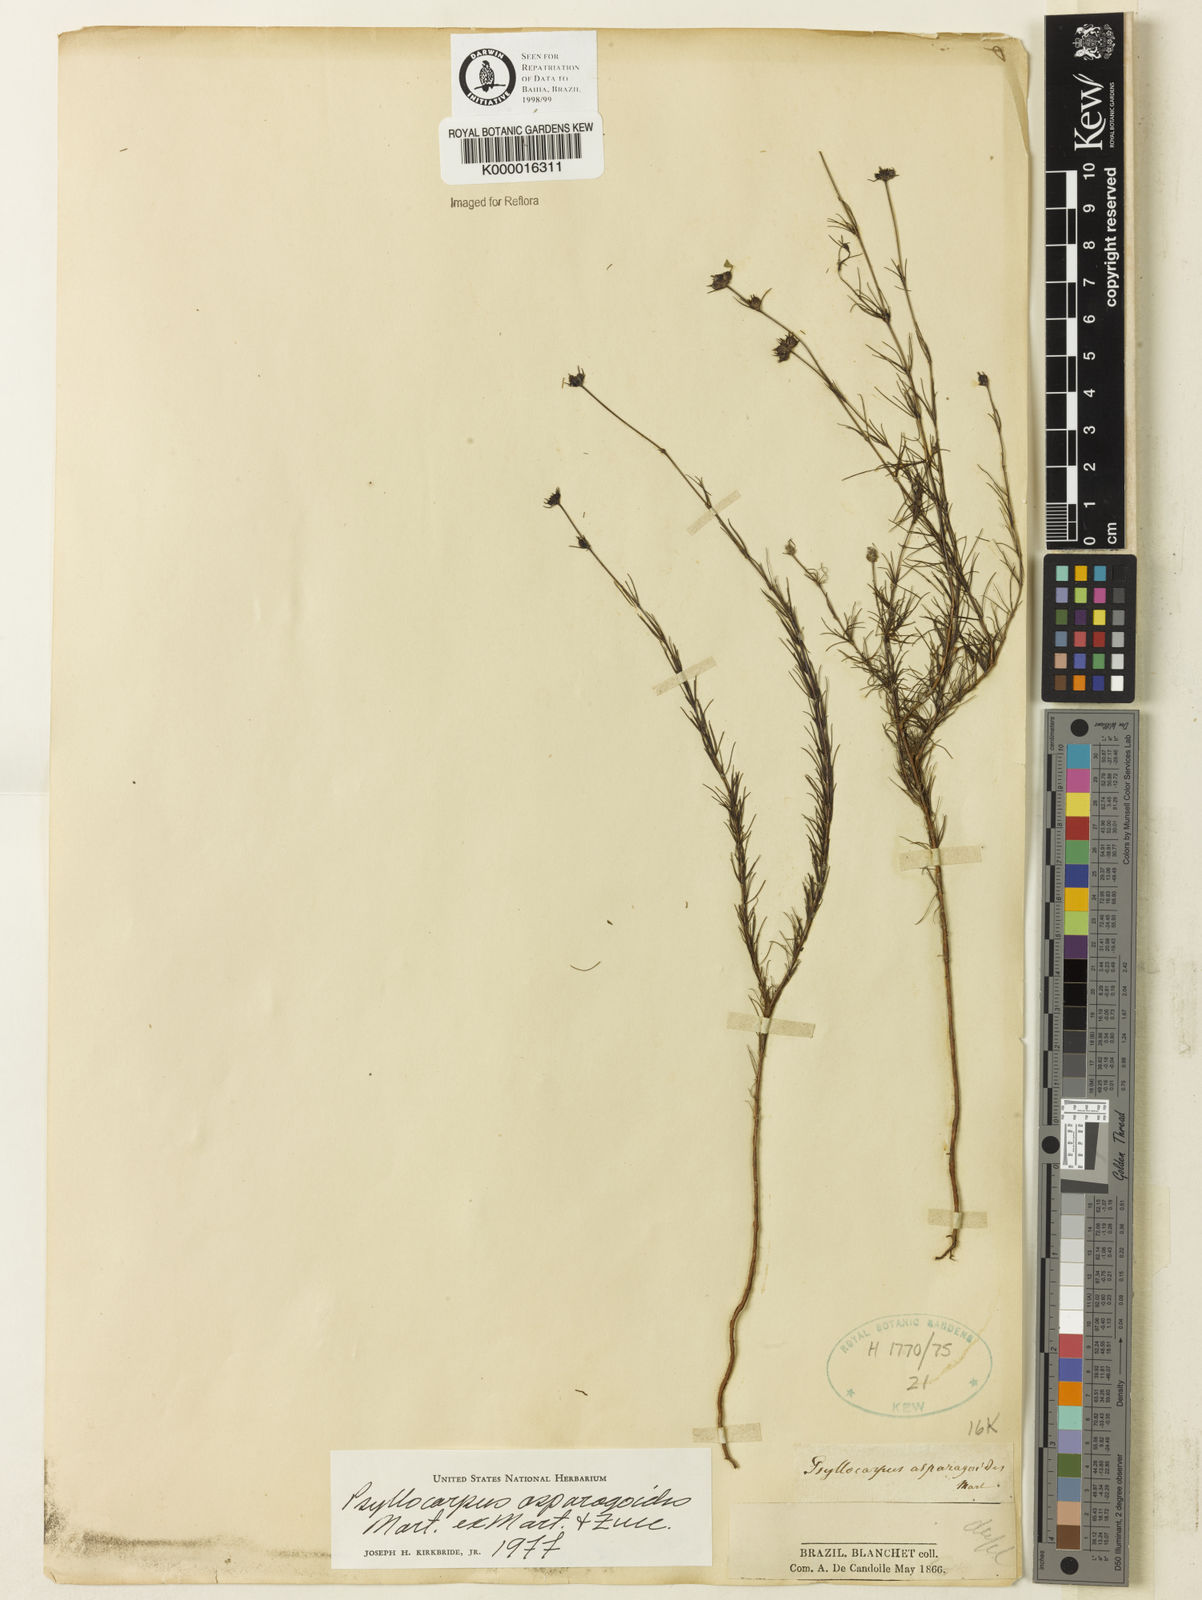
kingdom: Plantae
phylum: Tracheophyta
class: Magnoliopsida
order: Gentianales
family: Rubiaceae
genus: Psyllocarpus
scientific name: Psyllocarpus asparagoides
